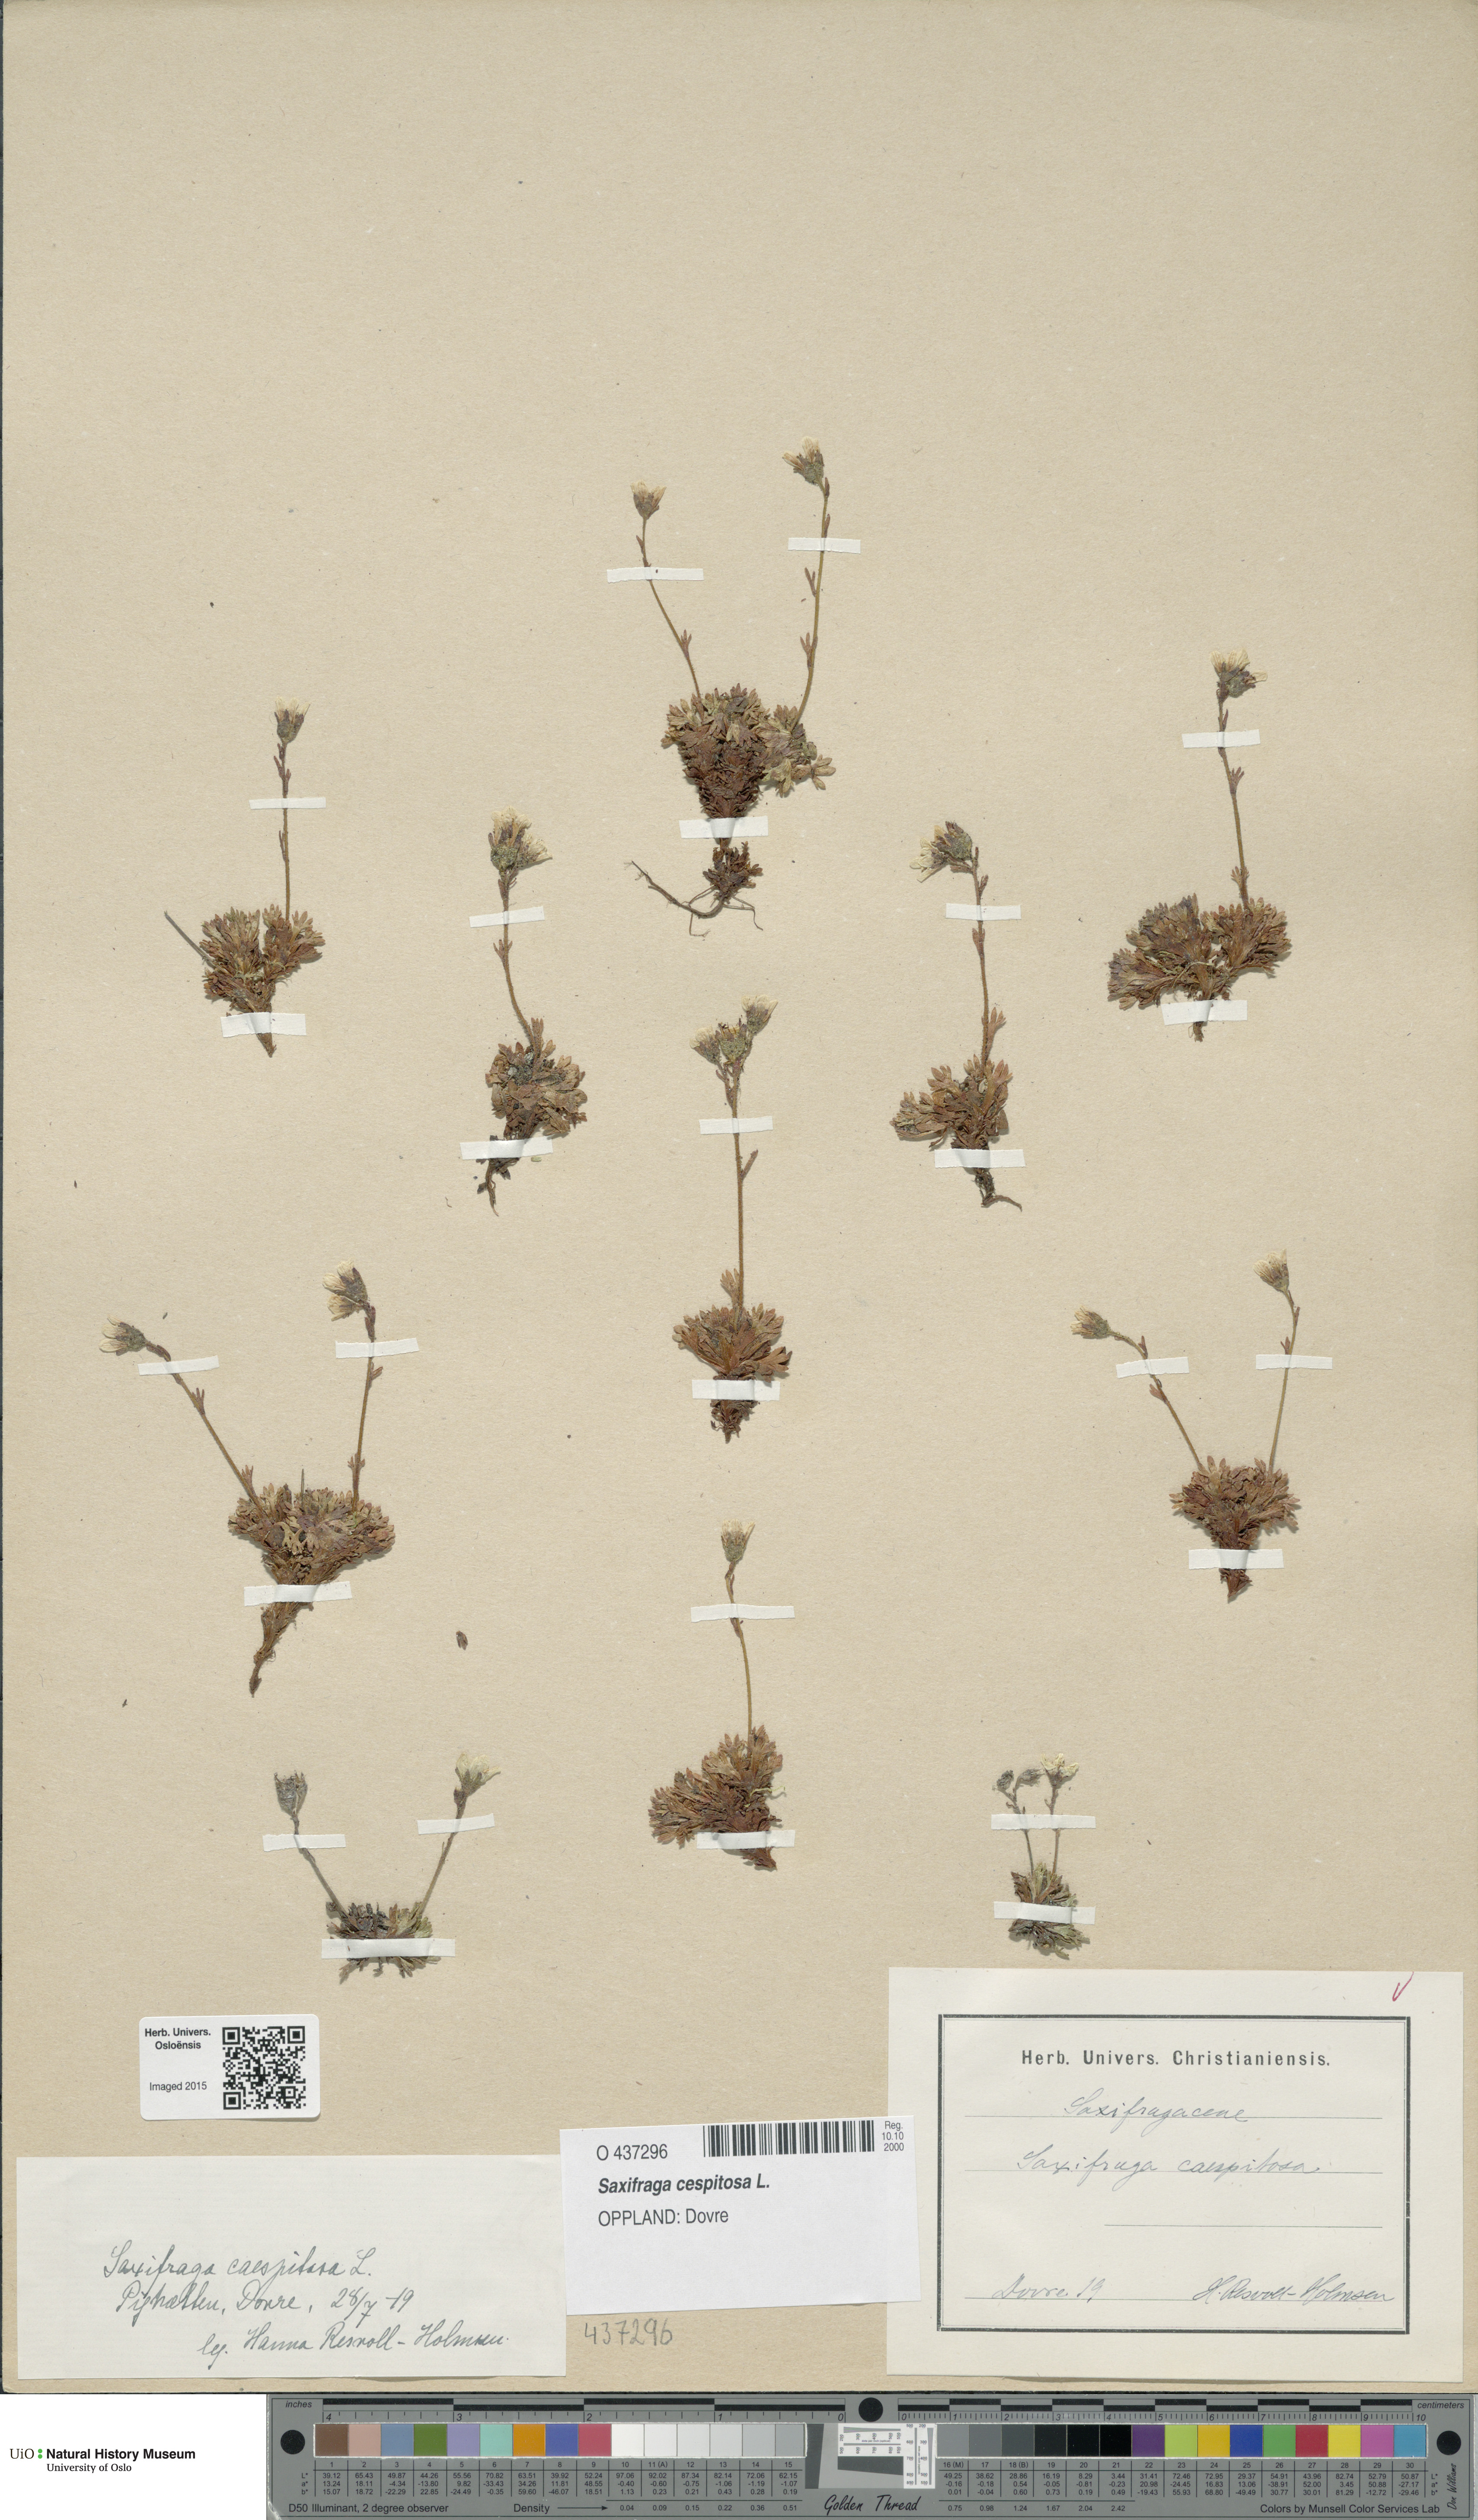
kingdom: Plantae
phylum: Tracheophyta
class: Magnoliopsida
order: Saxifragales
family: Saxifragaceae
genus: Saxifraga
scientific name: Saxifraga cespitosa
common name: Tufted saxifrage
